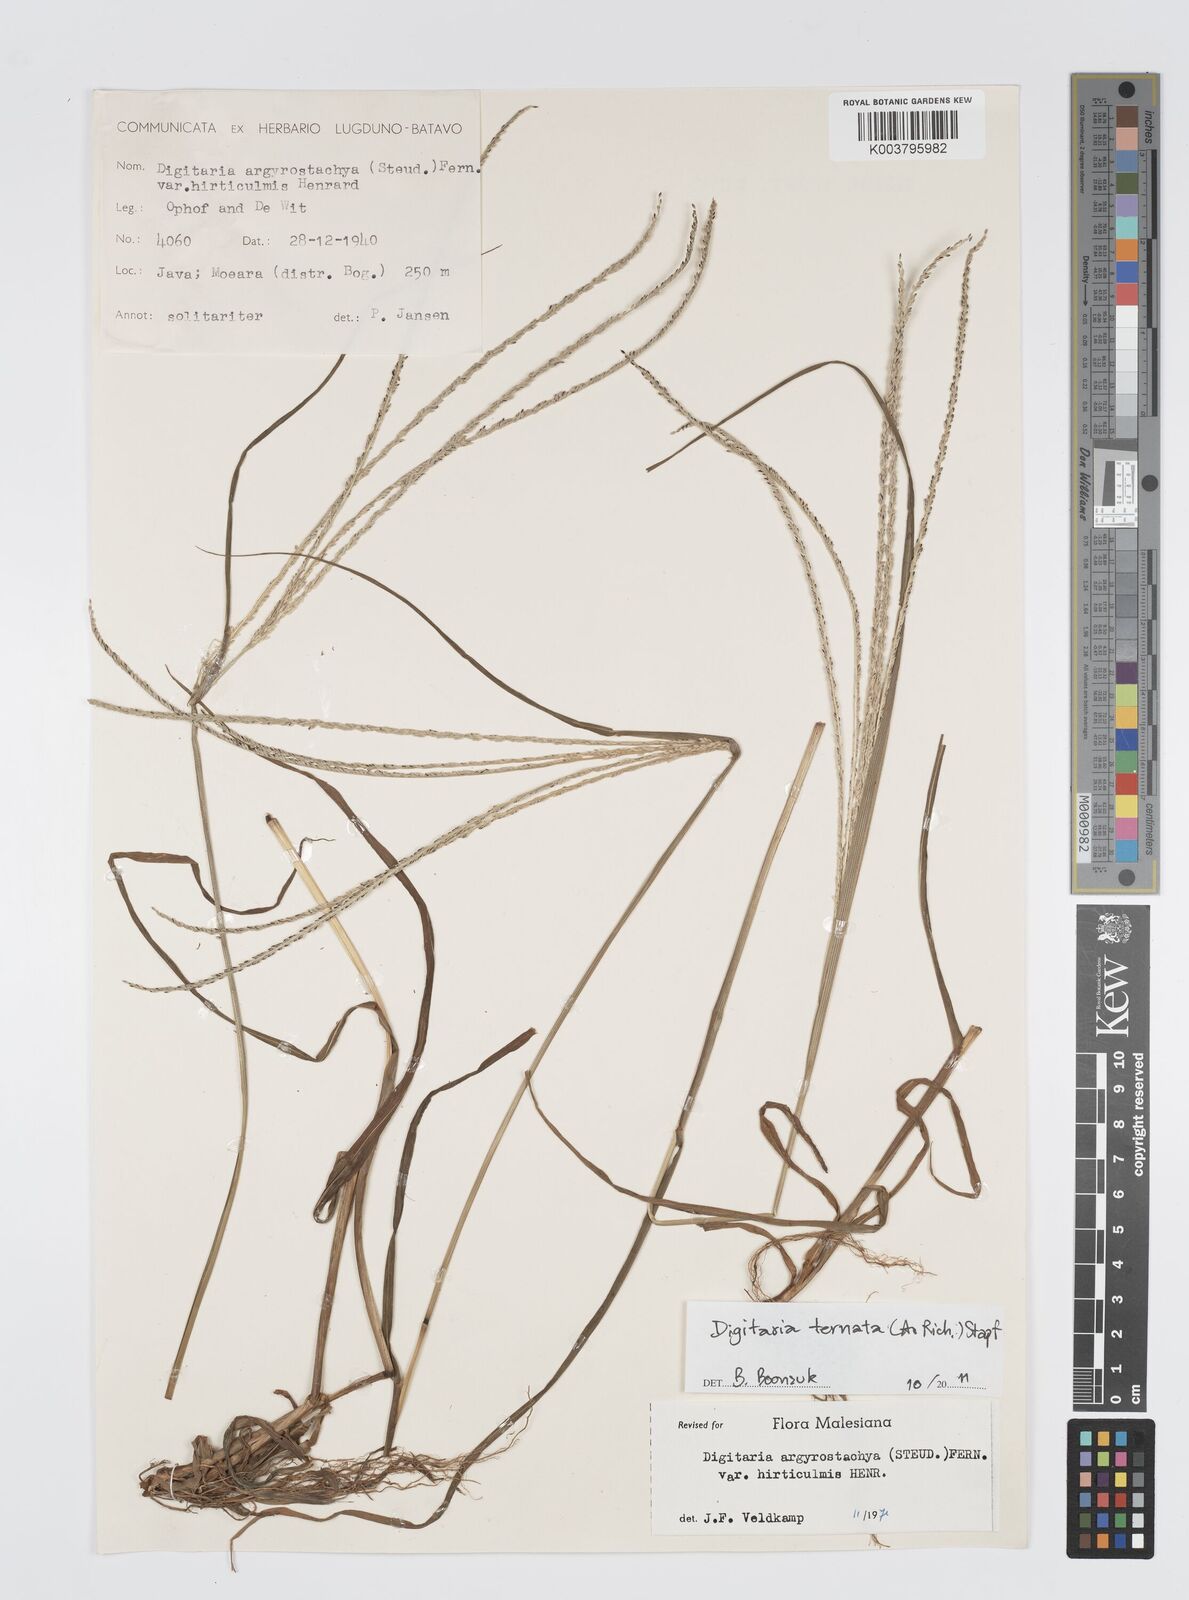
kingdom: Plantae
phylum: Tracheophyta
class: Liliopsida
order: Poales
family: Poaceae
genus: Digitaria
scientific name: Digitaria ternata
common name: Blackseed crabgrass
